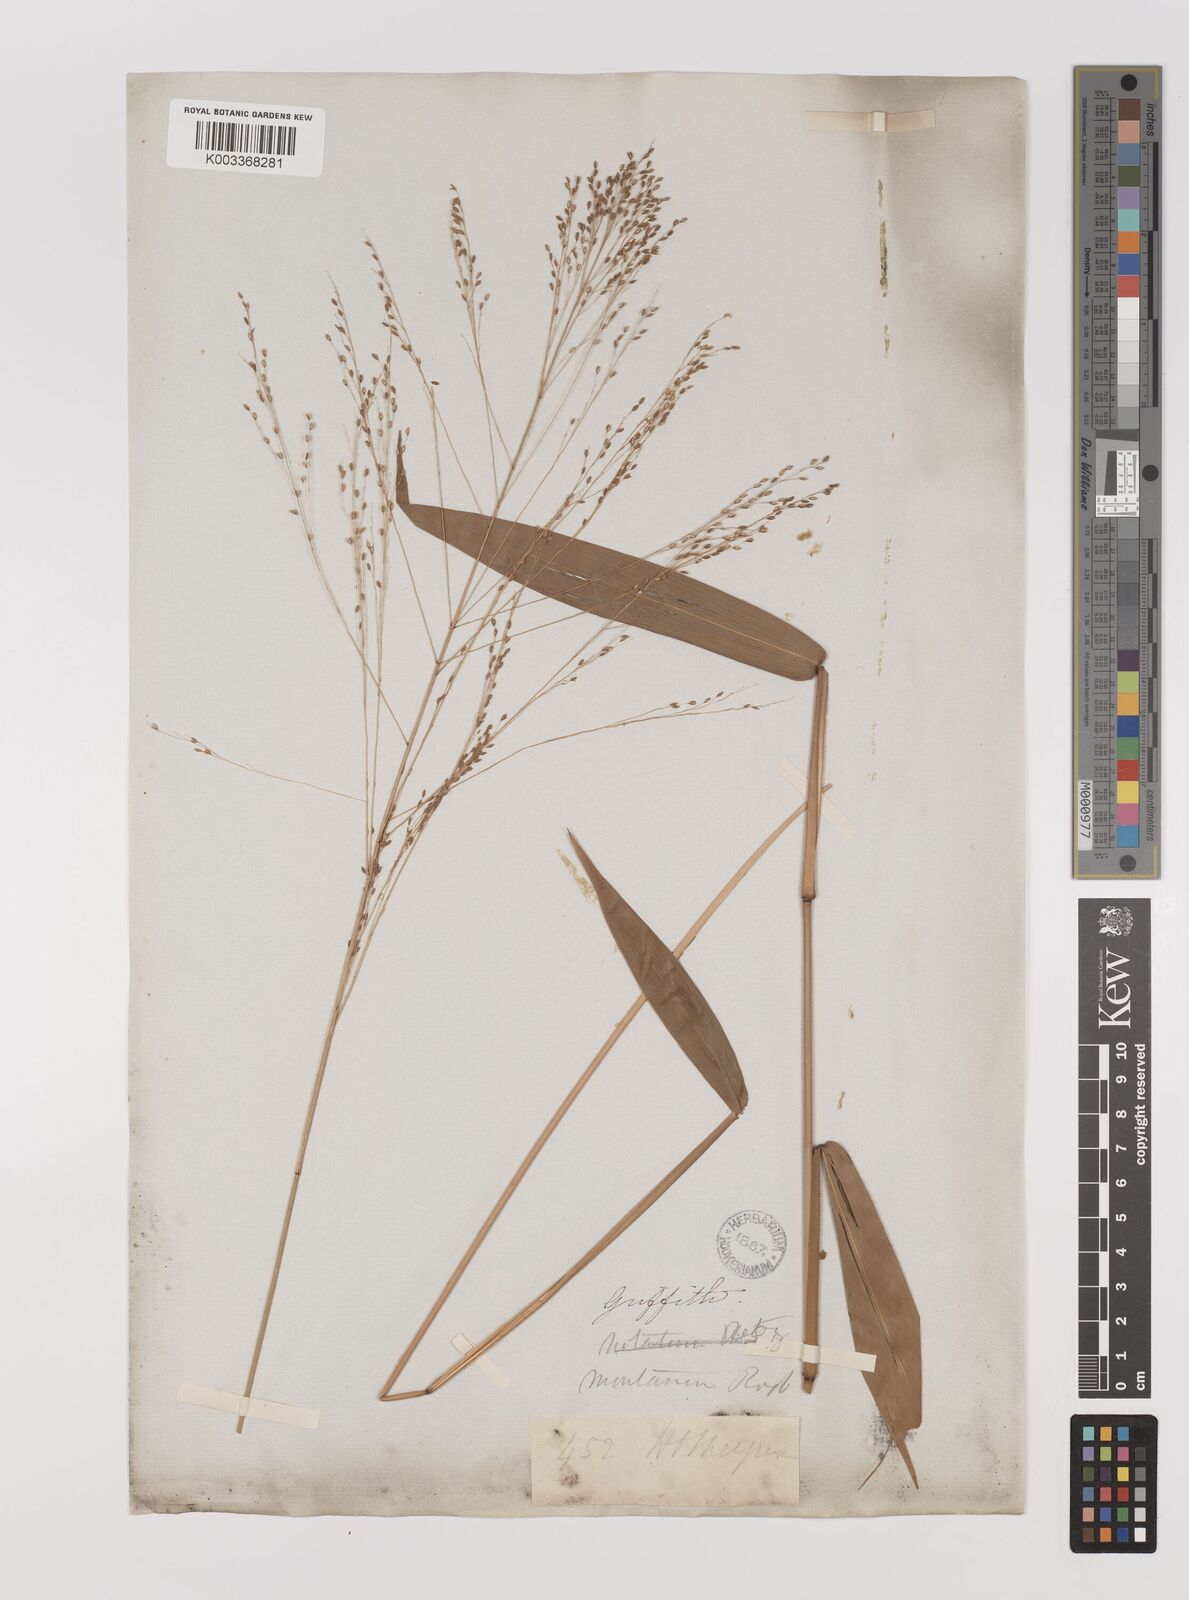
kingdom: Plantae
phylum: Tracheophyta
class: Liliopsida
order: Poales
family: Poaceae
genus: Panicum
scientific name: Panicum notatum
